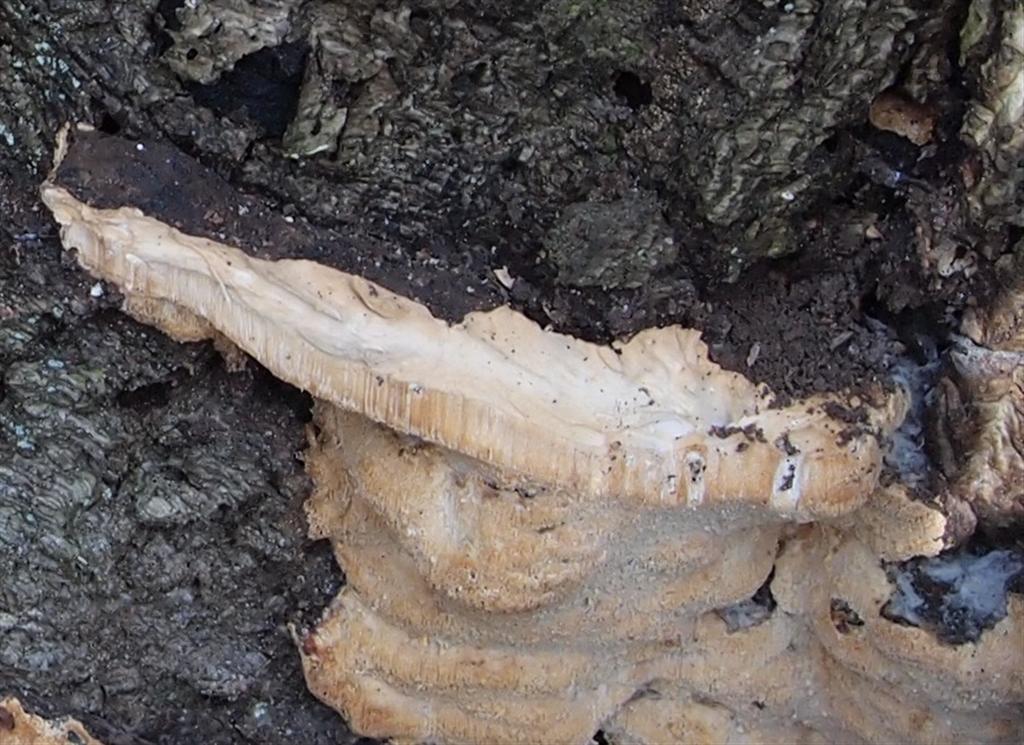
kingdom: Fungi
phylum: Basidiomycota
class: Agaricomycetes
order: Polyporales
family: Ischnodermataceae
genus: Ischnoderma
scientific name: Ischnoderma resinosum
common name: løv-tjæreporesvamp
